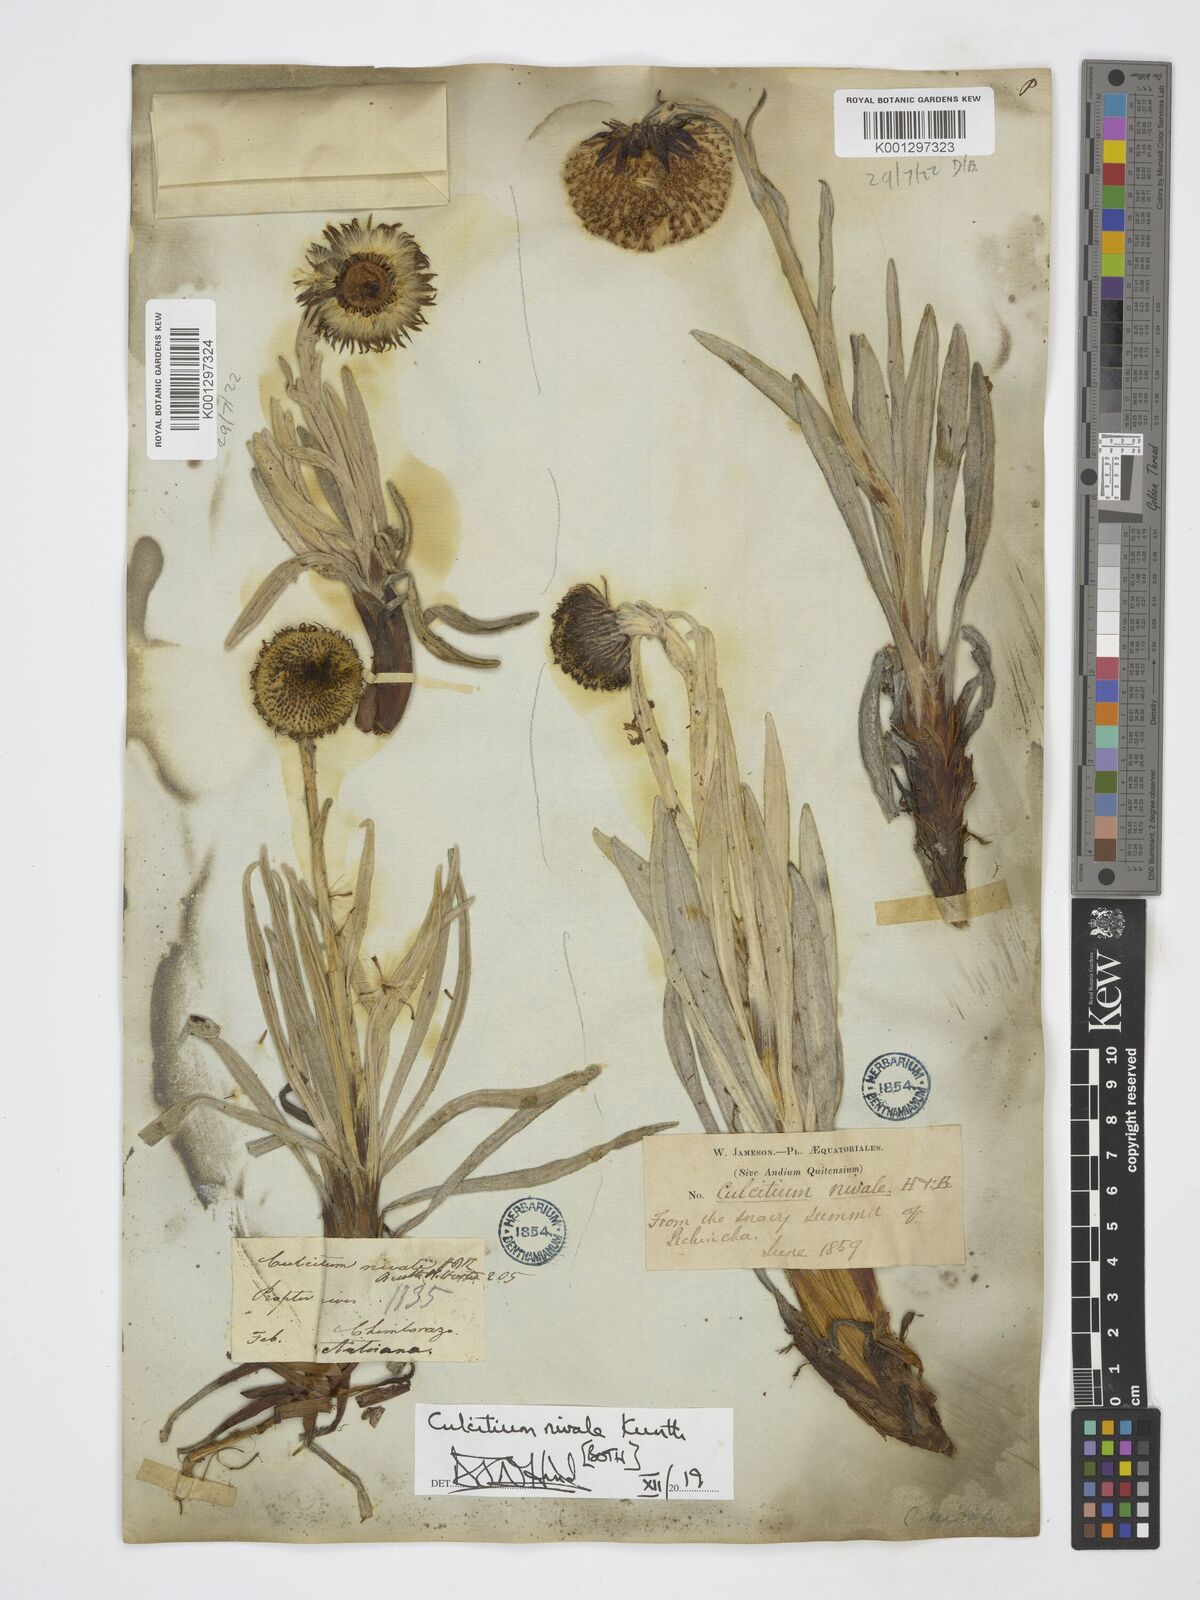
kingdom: Plantae
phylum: Tracheophyta
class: Magnoliopsida
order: Asterales
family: Asteraceae
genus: Culcitium
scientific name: Culcitium nivale
